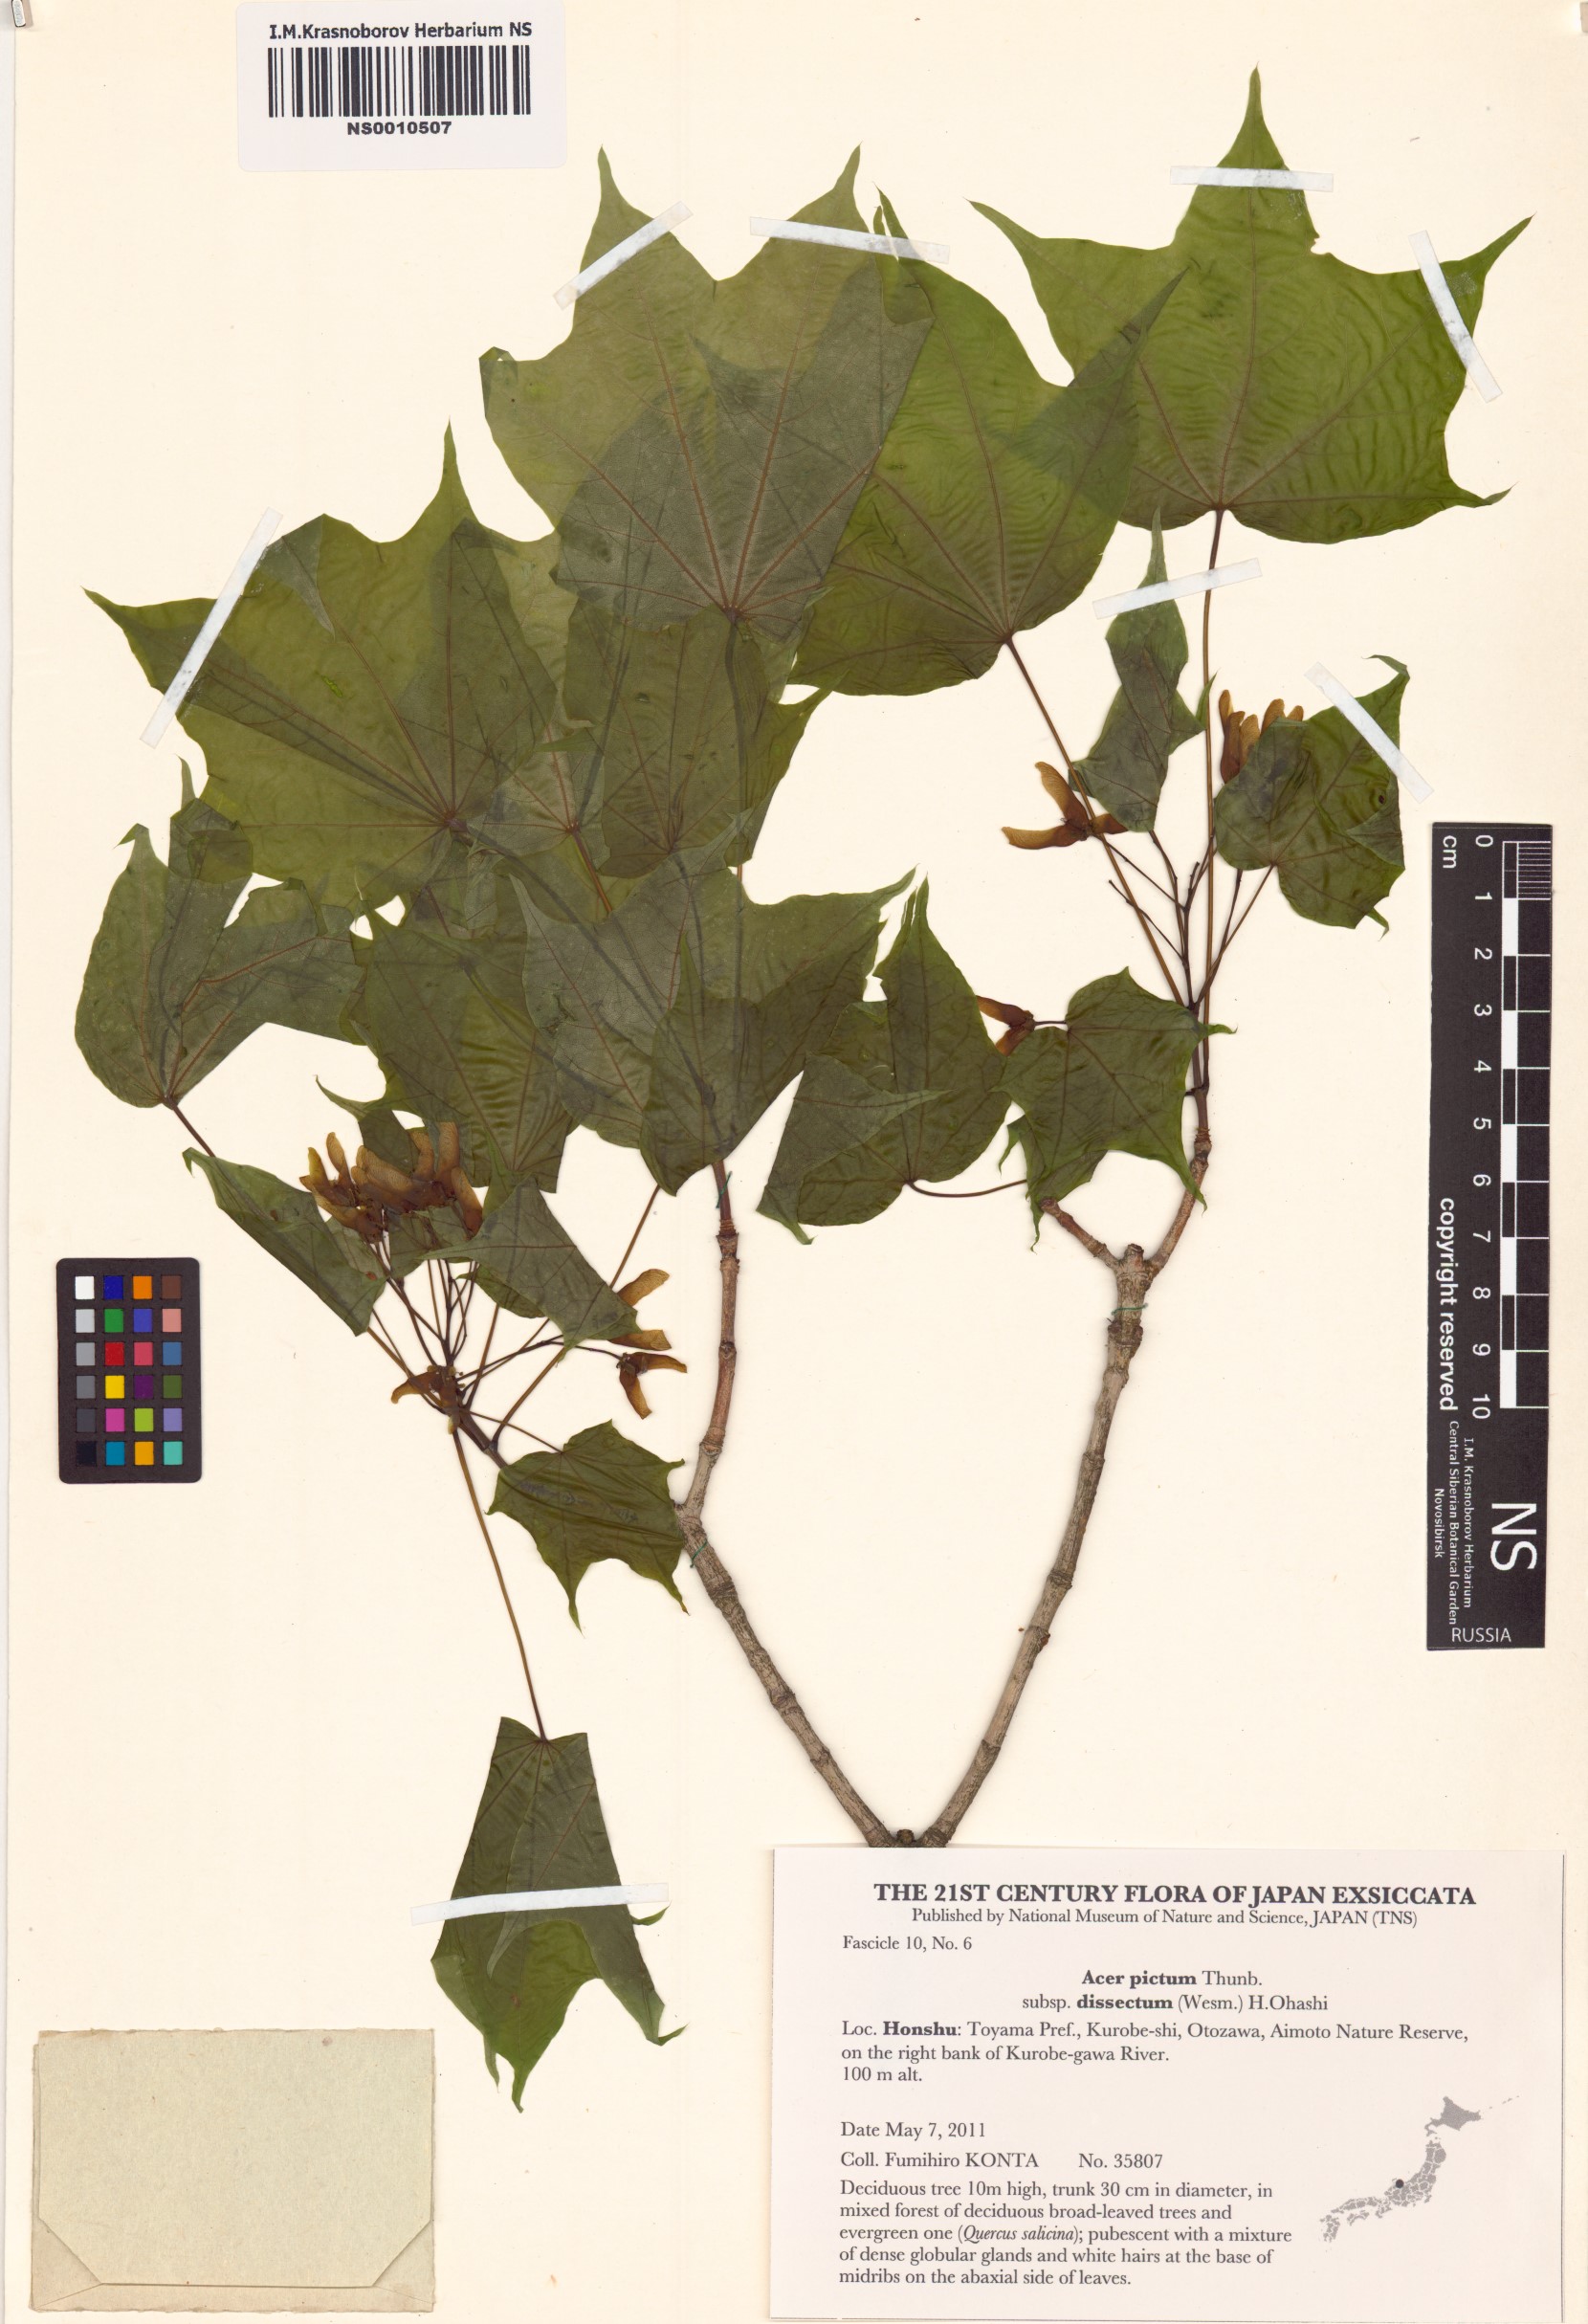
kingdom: Plantae
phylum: Tracheophyta
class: Magnoliopsida
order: Sapindales
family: Sapindaceae
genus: Acer
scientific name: Acer pictum
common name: The painted maple
